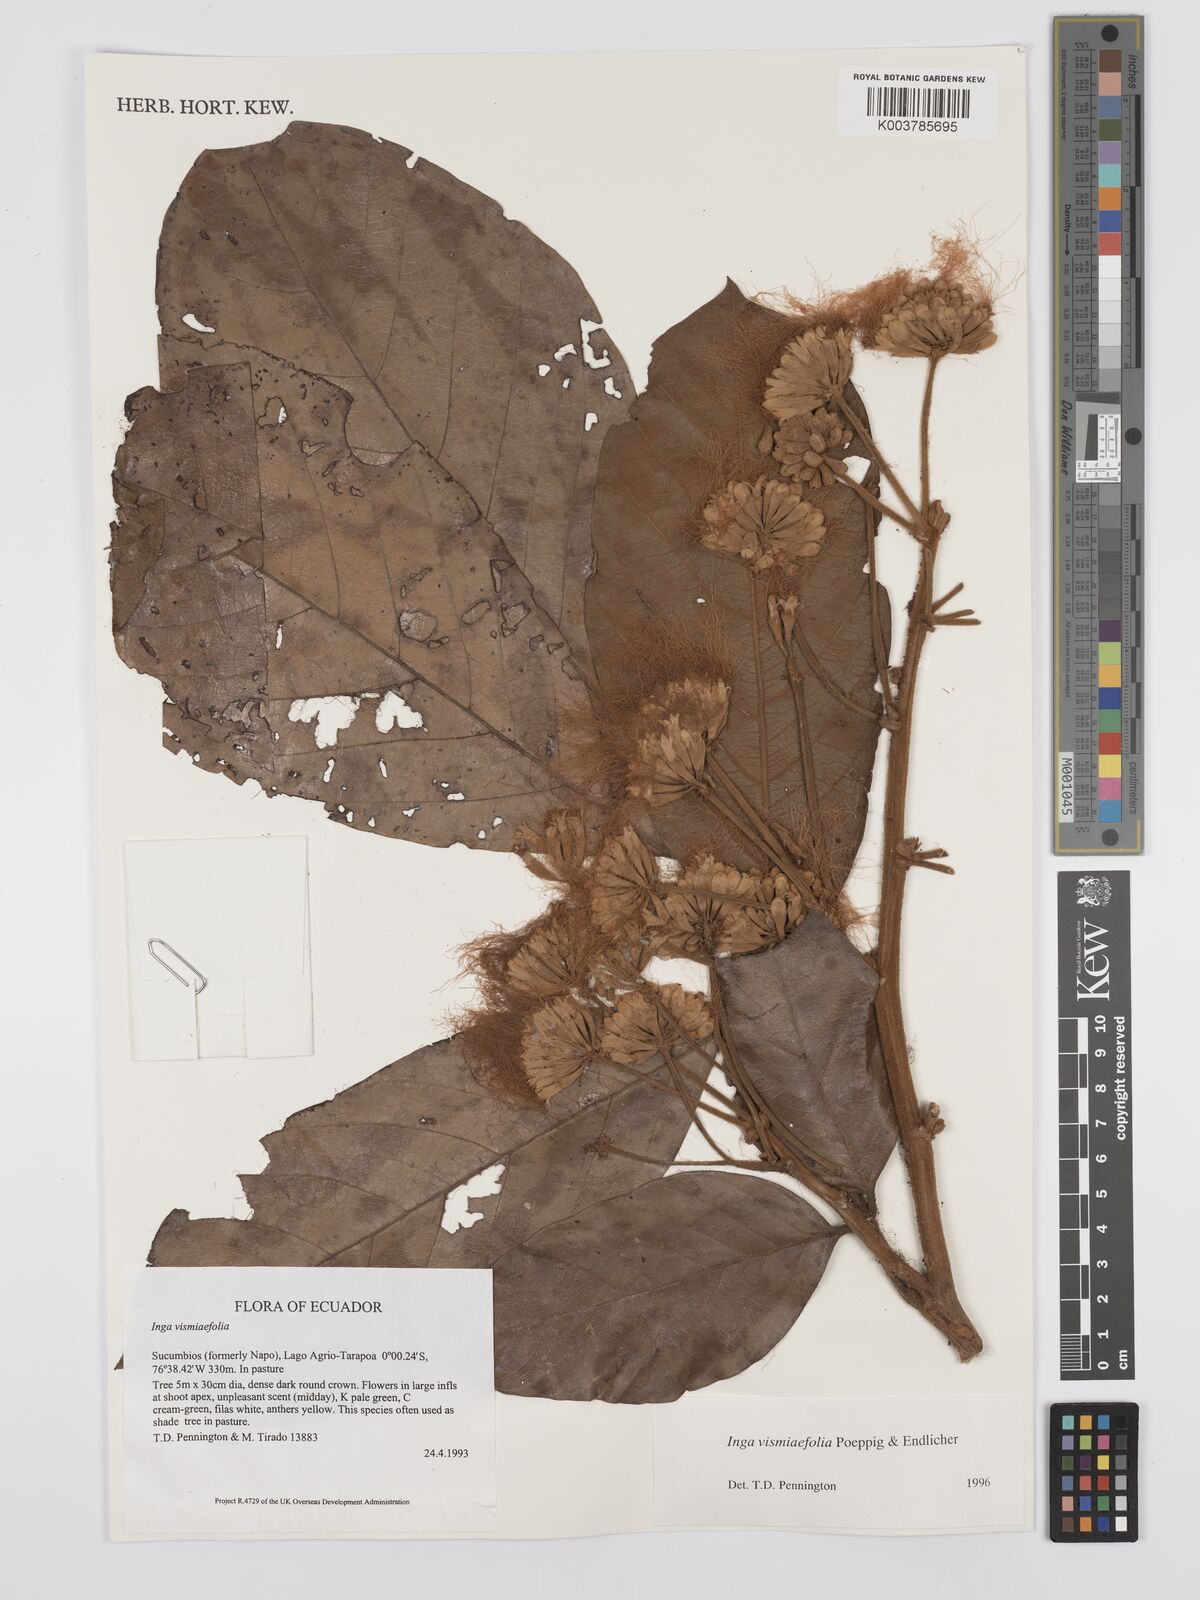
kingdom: Plantae
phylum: Tracheophyta
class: Magnoliopsida
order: Fabales
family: Fabaceae
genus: Inga
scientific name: Inga vismiifolia
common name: Howler monkey inga
